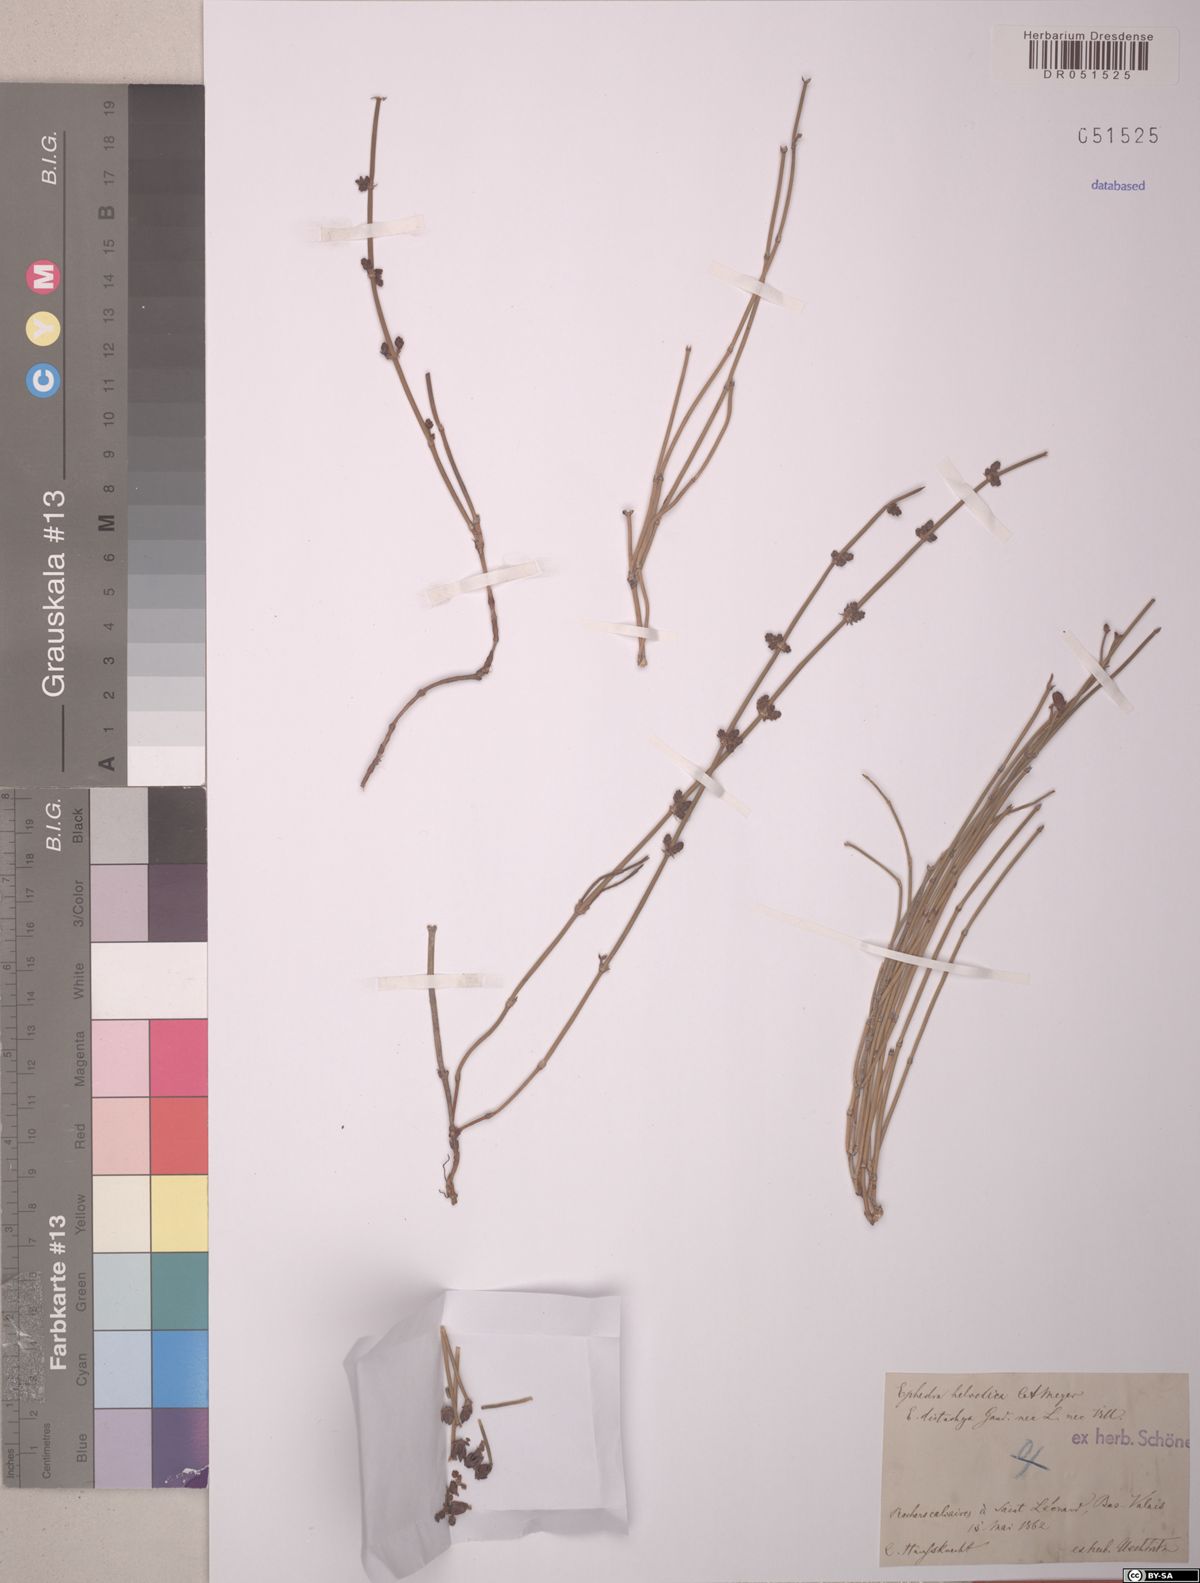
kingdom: Plantae
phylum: Tracheophyta
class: Gnetopsida
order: Ephedrales
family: Ephedraceae
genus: Ephedra
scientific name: Ephedra distachya
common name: Sea grape
